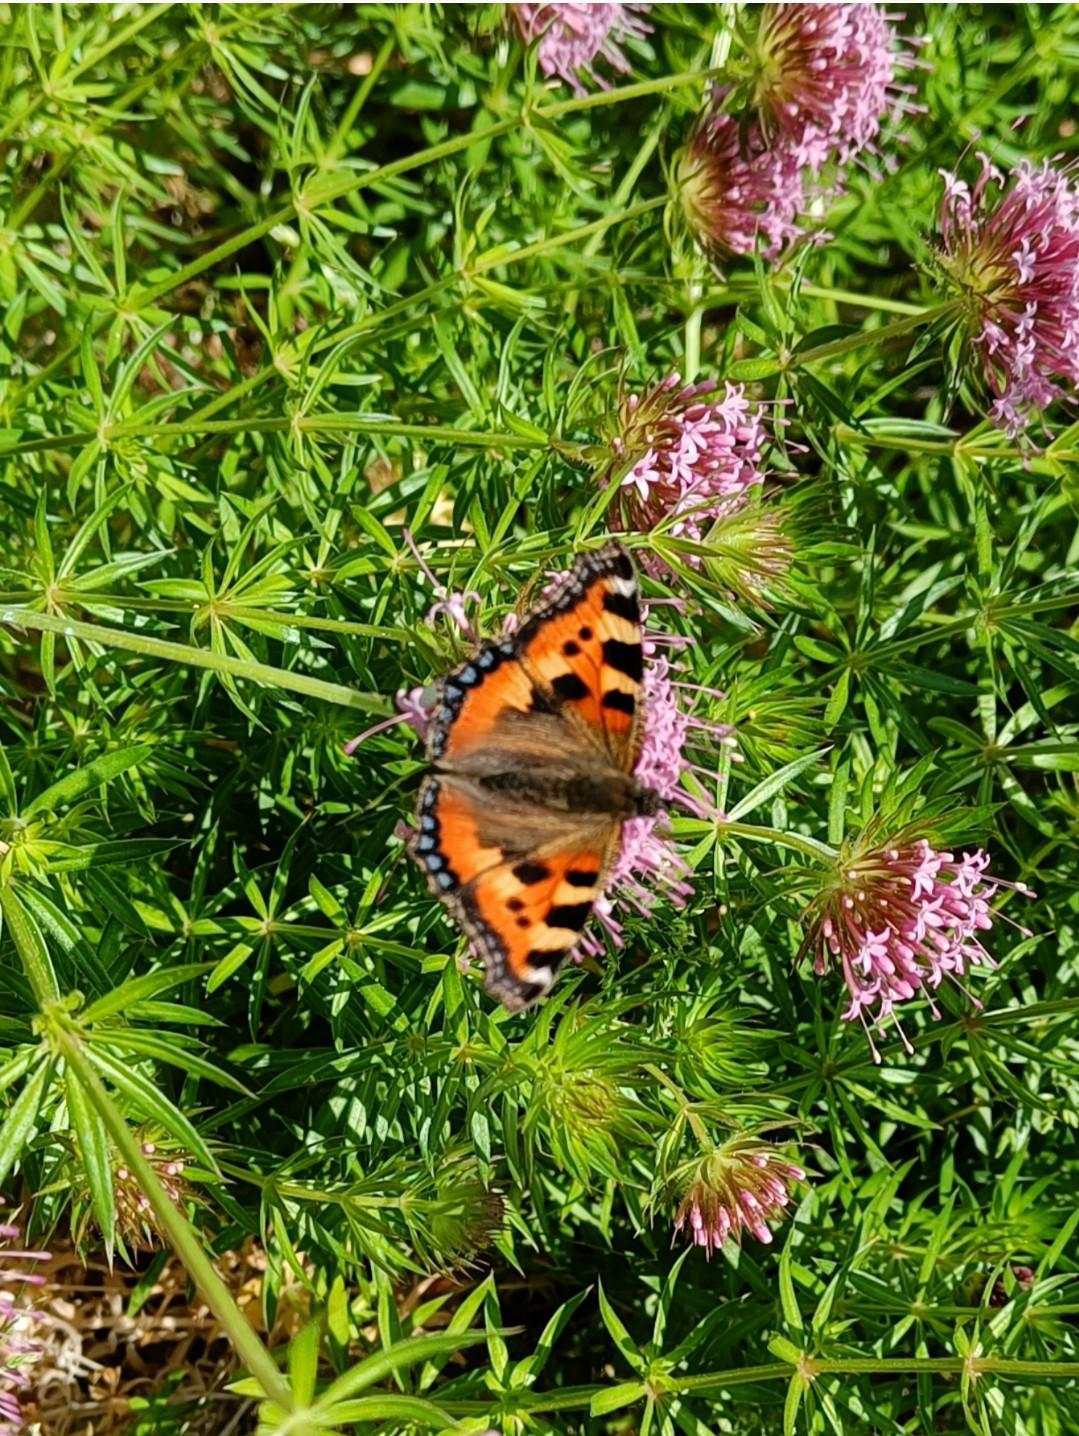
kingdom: Animalia
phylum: Arthropoda
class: Insecta
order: Lepidoptera
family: Nymphalidae
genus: Aglais
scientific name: Aglais urticae
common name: Nældens takvinge
